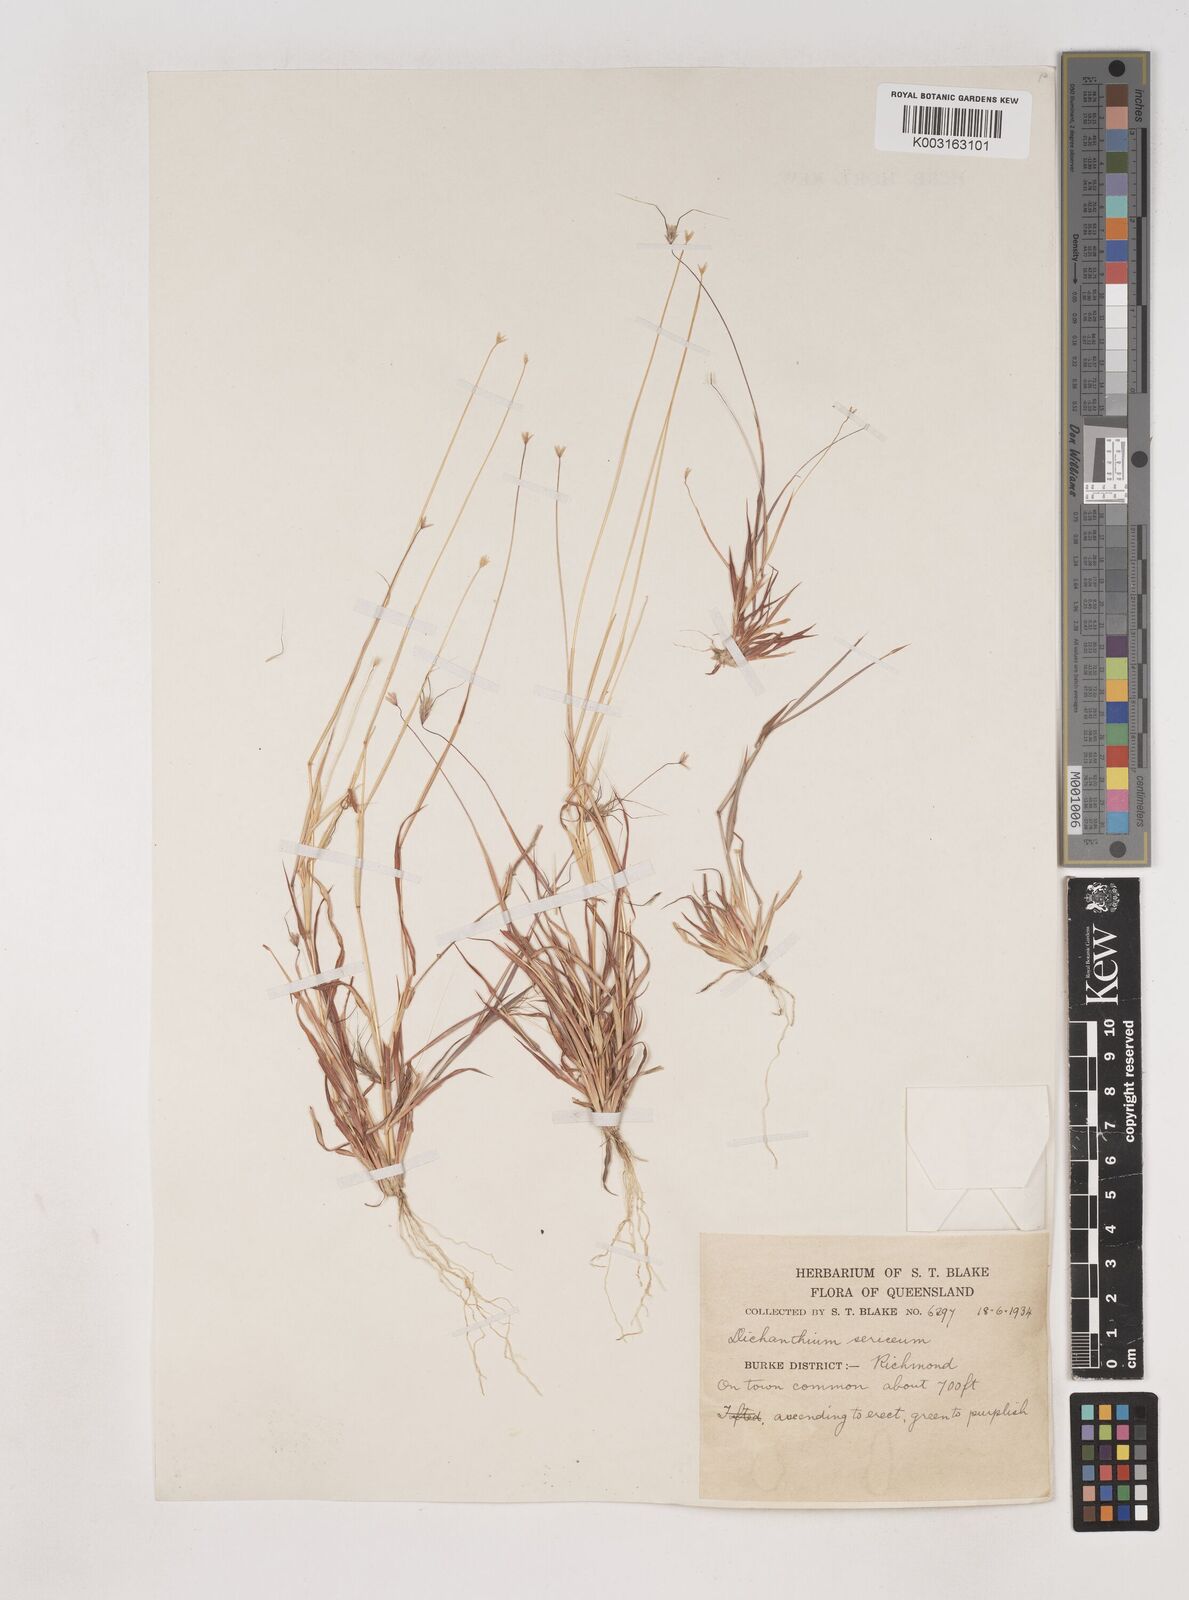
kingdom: Plantae
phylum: Tracheophyta
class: Liliopsida
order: Poales
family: Poaceae
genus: Dichanthium
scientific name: Dichanthium sericeum
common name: Silky bluestem
